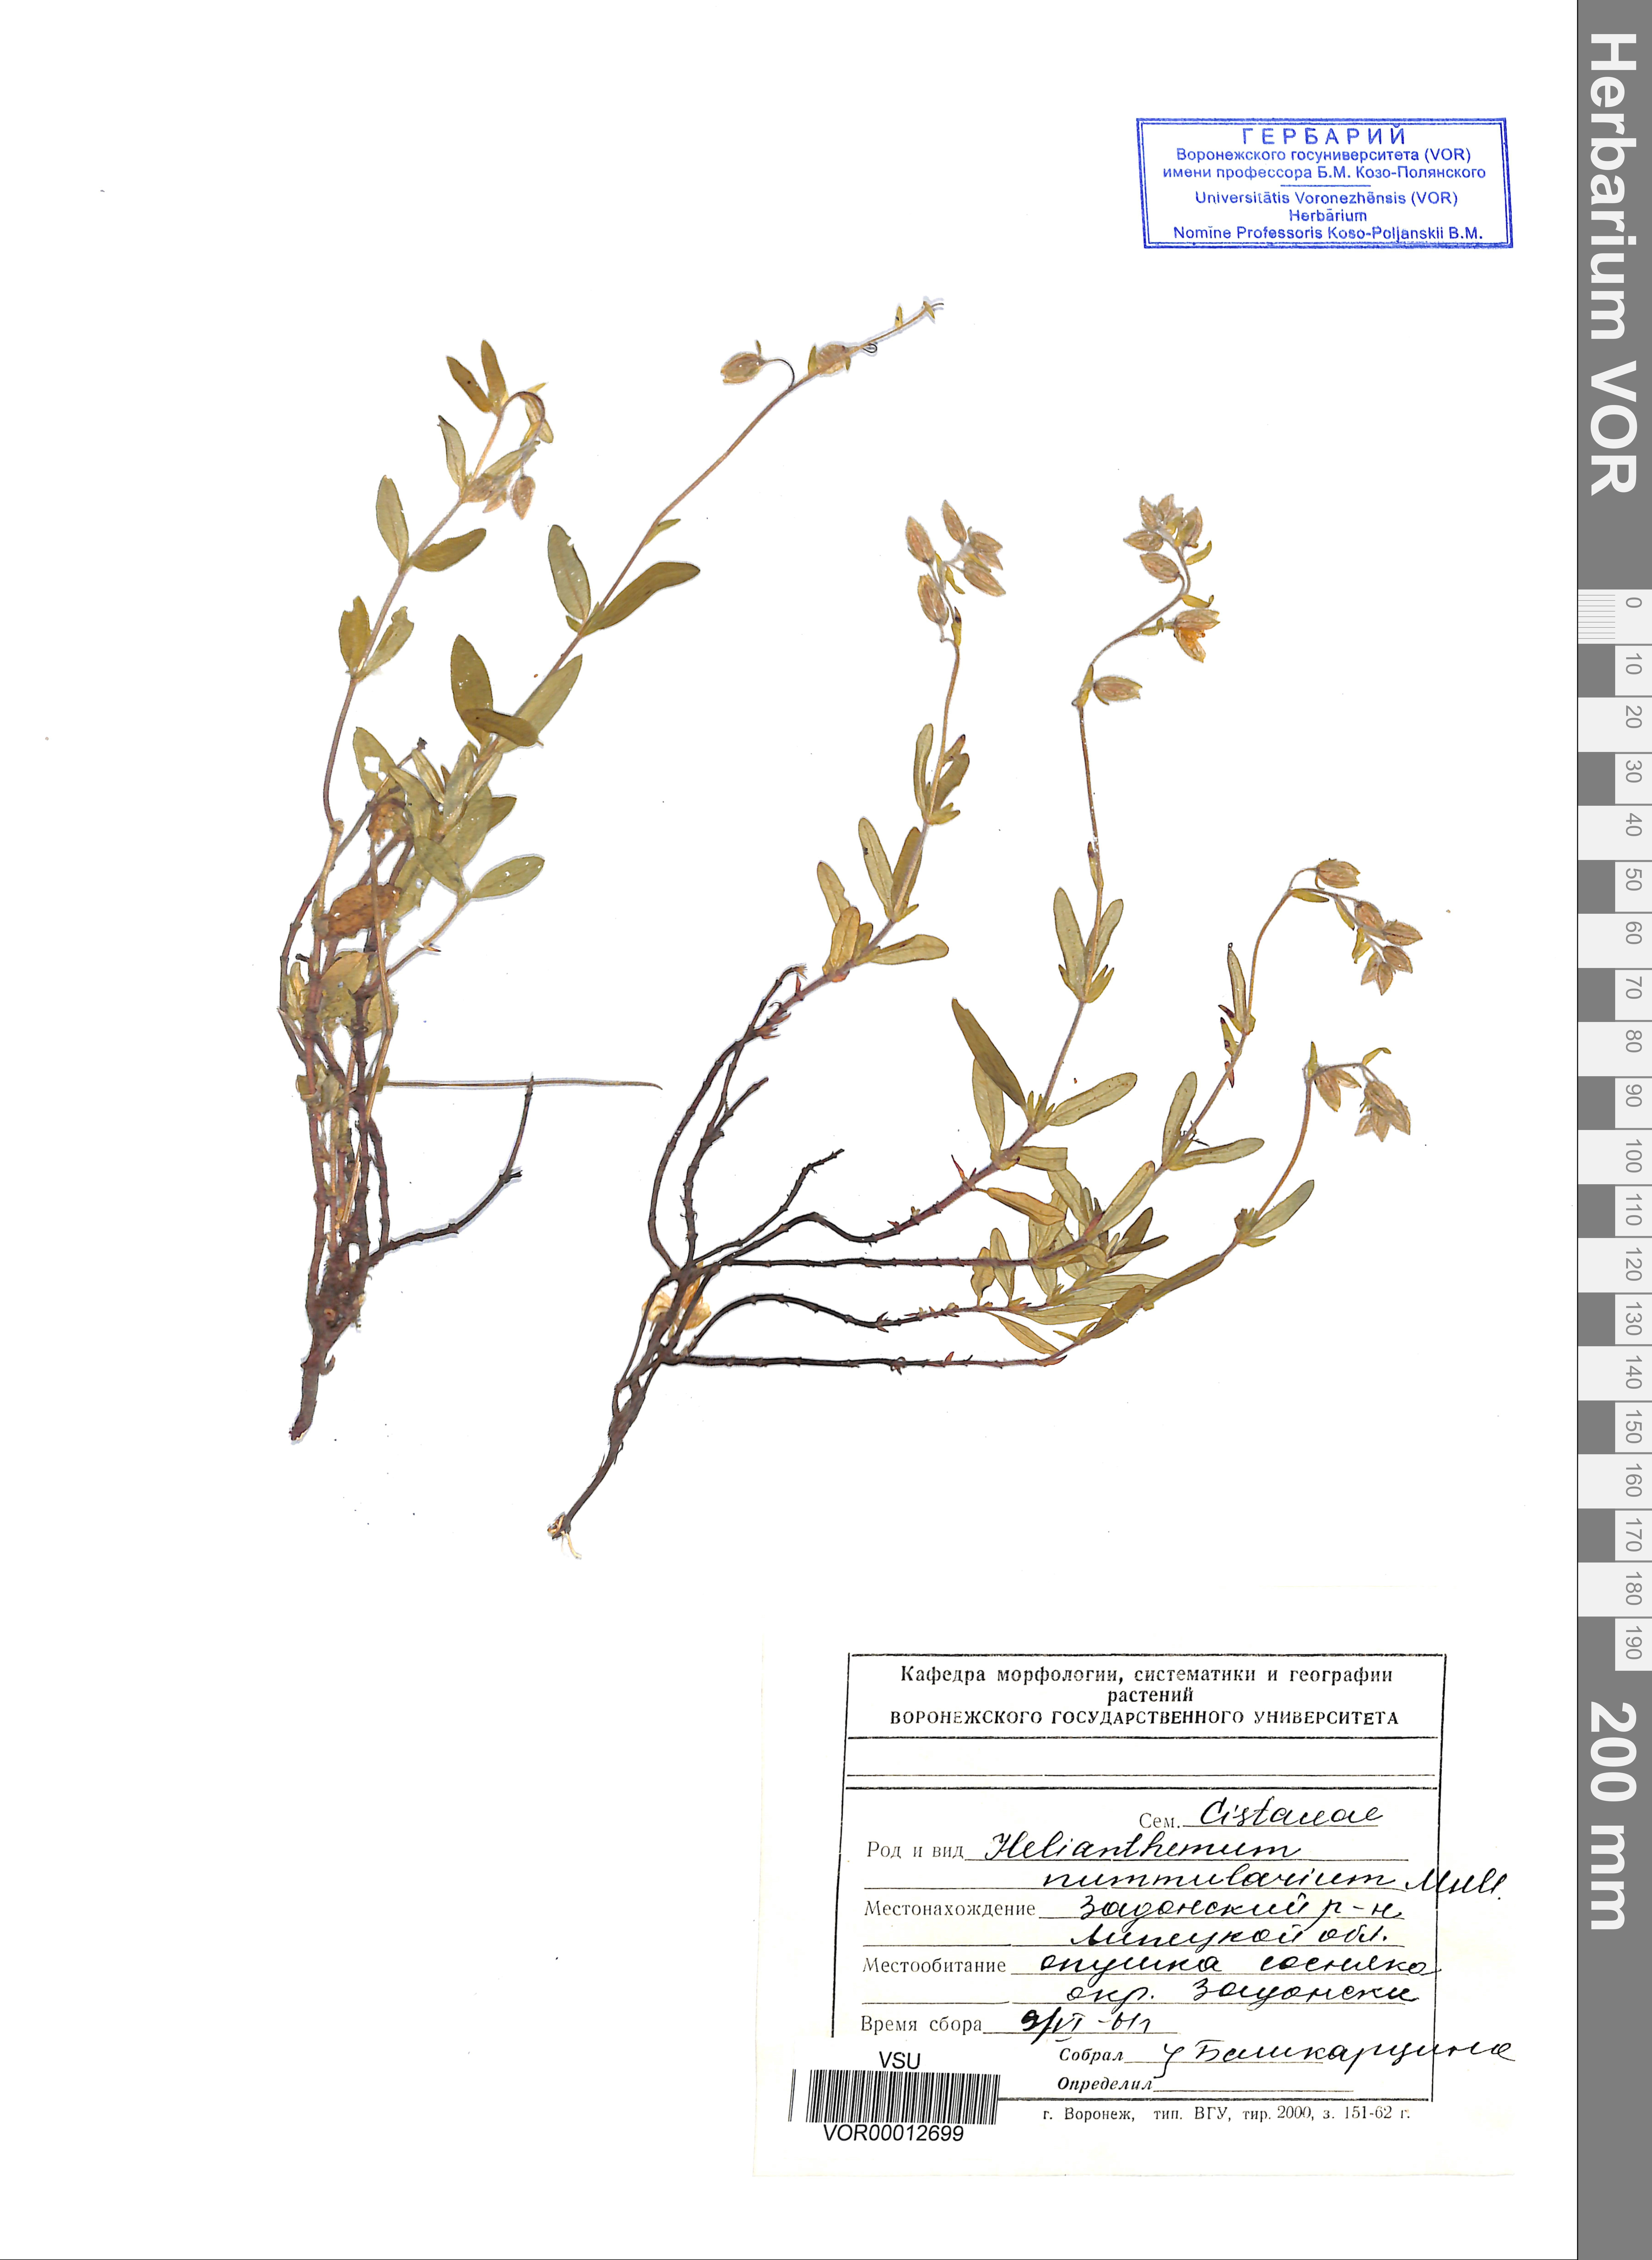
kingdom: Plantae
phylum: Tracheophyta
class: Magnoliopsida
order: Malvales
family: Cistaceae
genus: Helianthemum
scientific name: Helianthemum nummularium
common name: Common rock-rose
